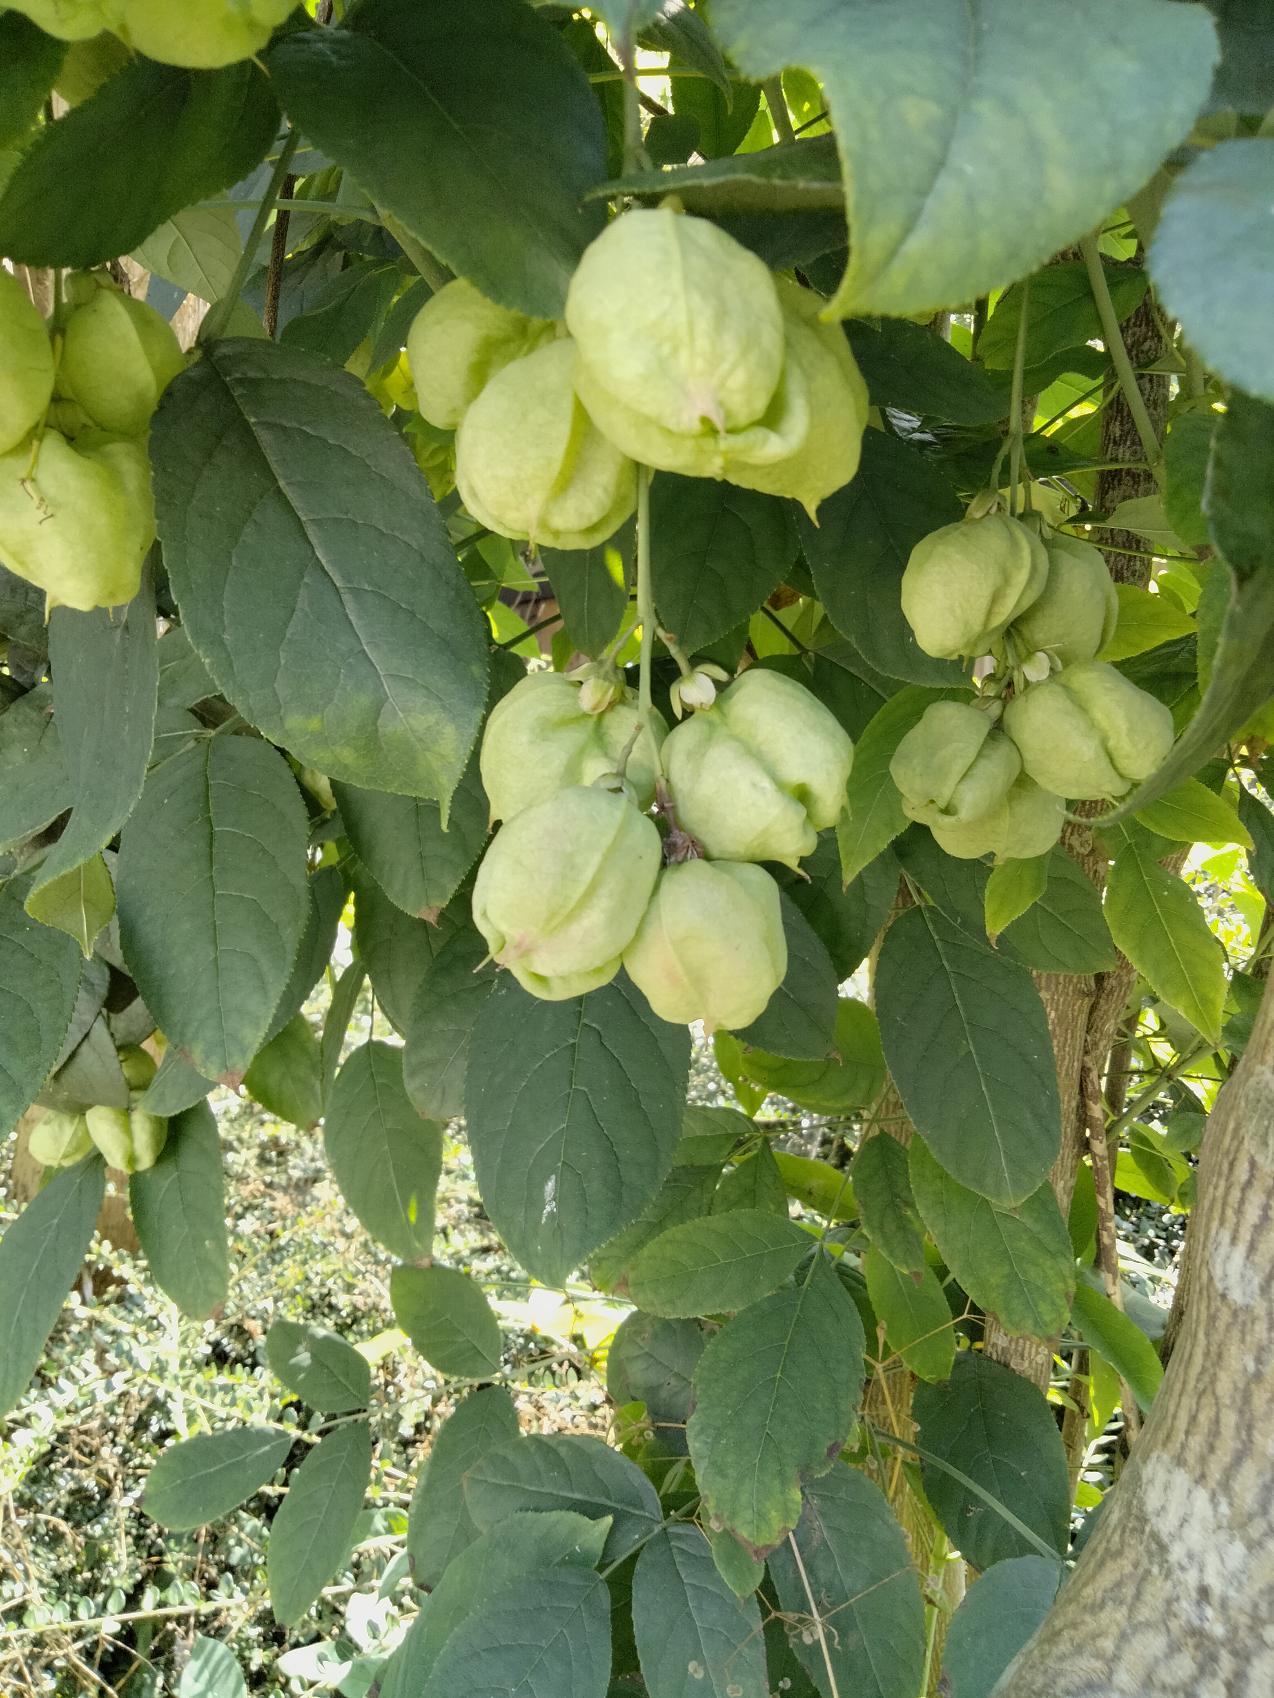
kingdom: Plantae
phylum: Tracheophyta
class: Magnoliopsida
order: Crossosomatales
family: Staphyleaceae
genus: Staphylea
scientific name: Staphylea pinnata
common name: Blærenød
